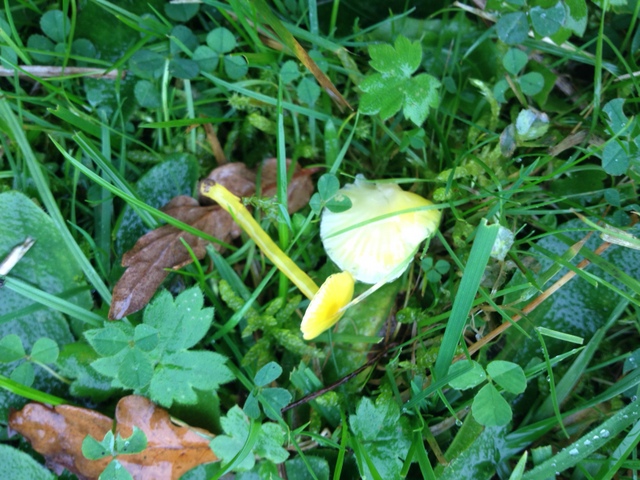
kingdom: Fungi
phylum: Basidiomycota
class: Agaricomycetes
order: Agaricales
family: Hygrophoraceae
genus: Hygrocybe
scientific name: Hygrocybe glutinipes
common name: slimstokket vokshat
